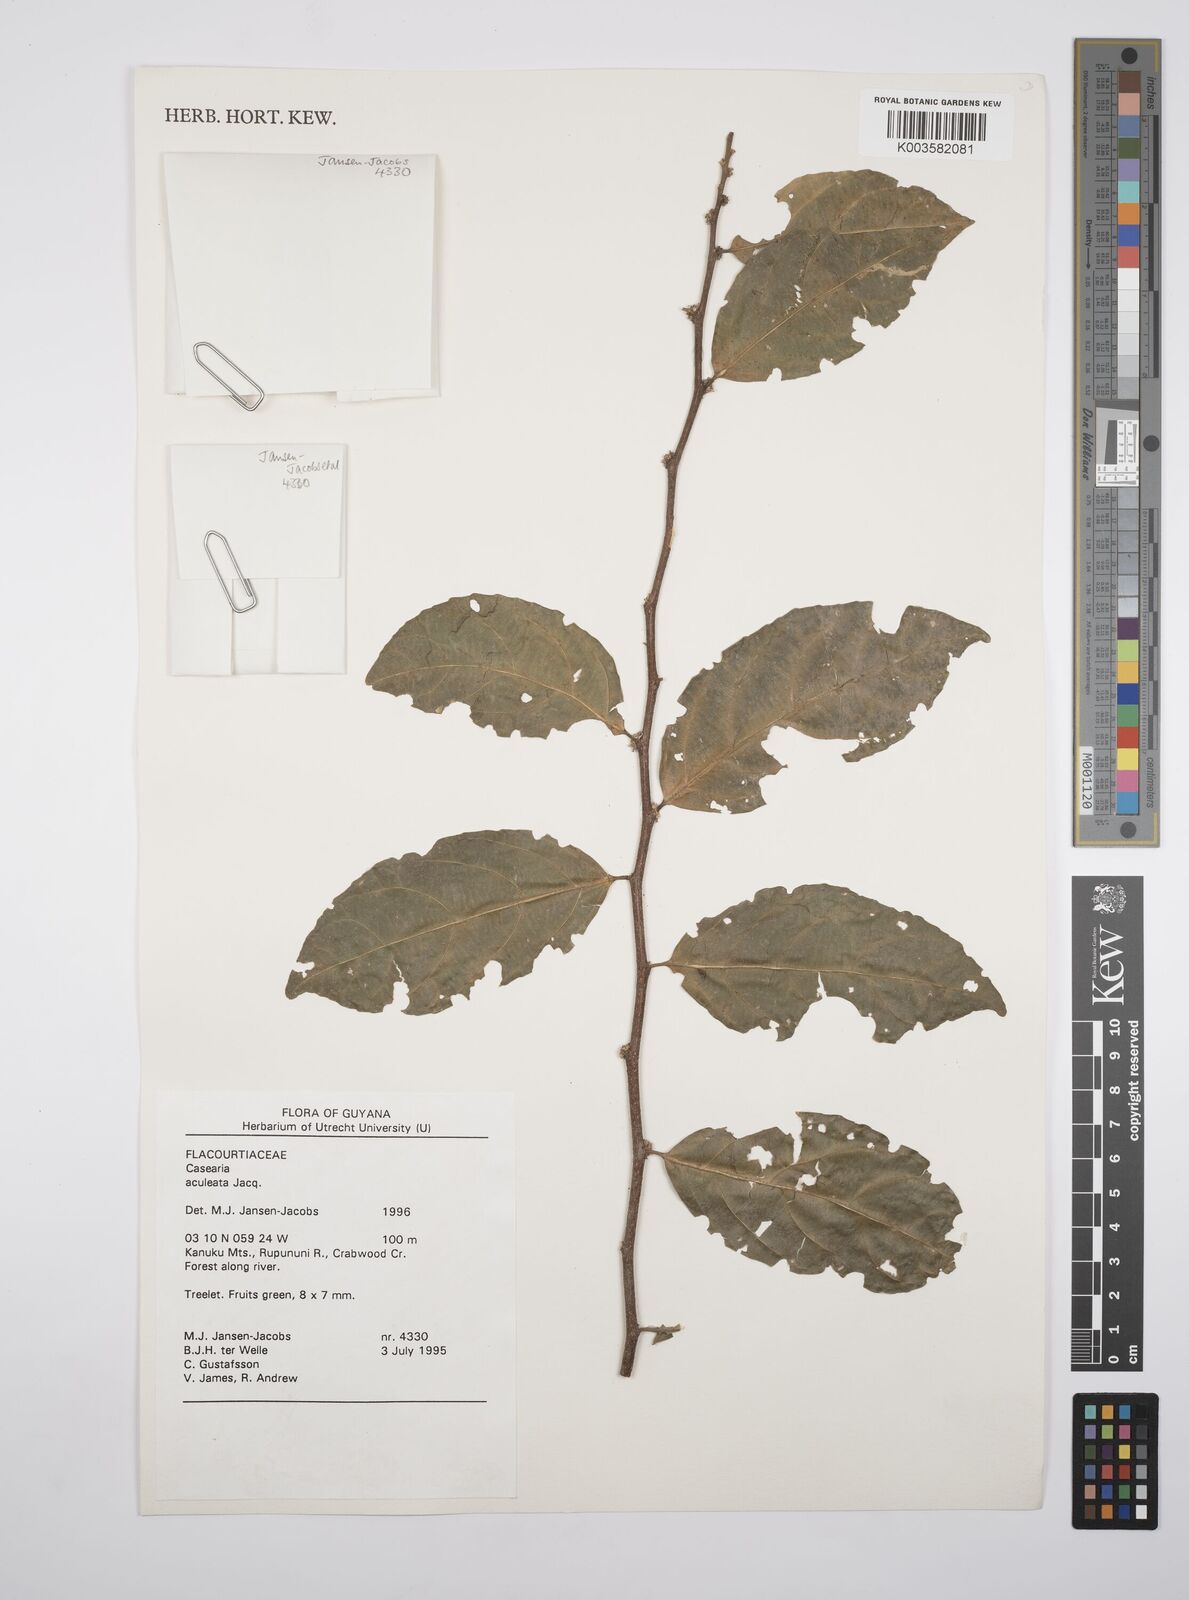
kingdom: Plantae
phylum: Tracheophyta
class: Magnoliopsida
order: Malpighiales
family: Salicaceae
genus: Casearia
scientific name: Casearia aculeata
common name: Cockspur
